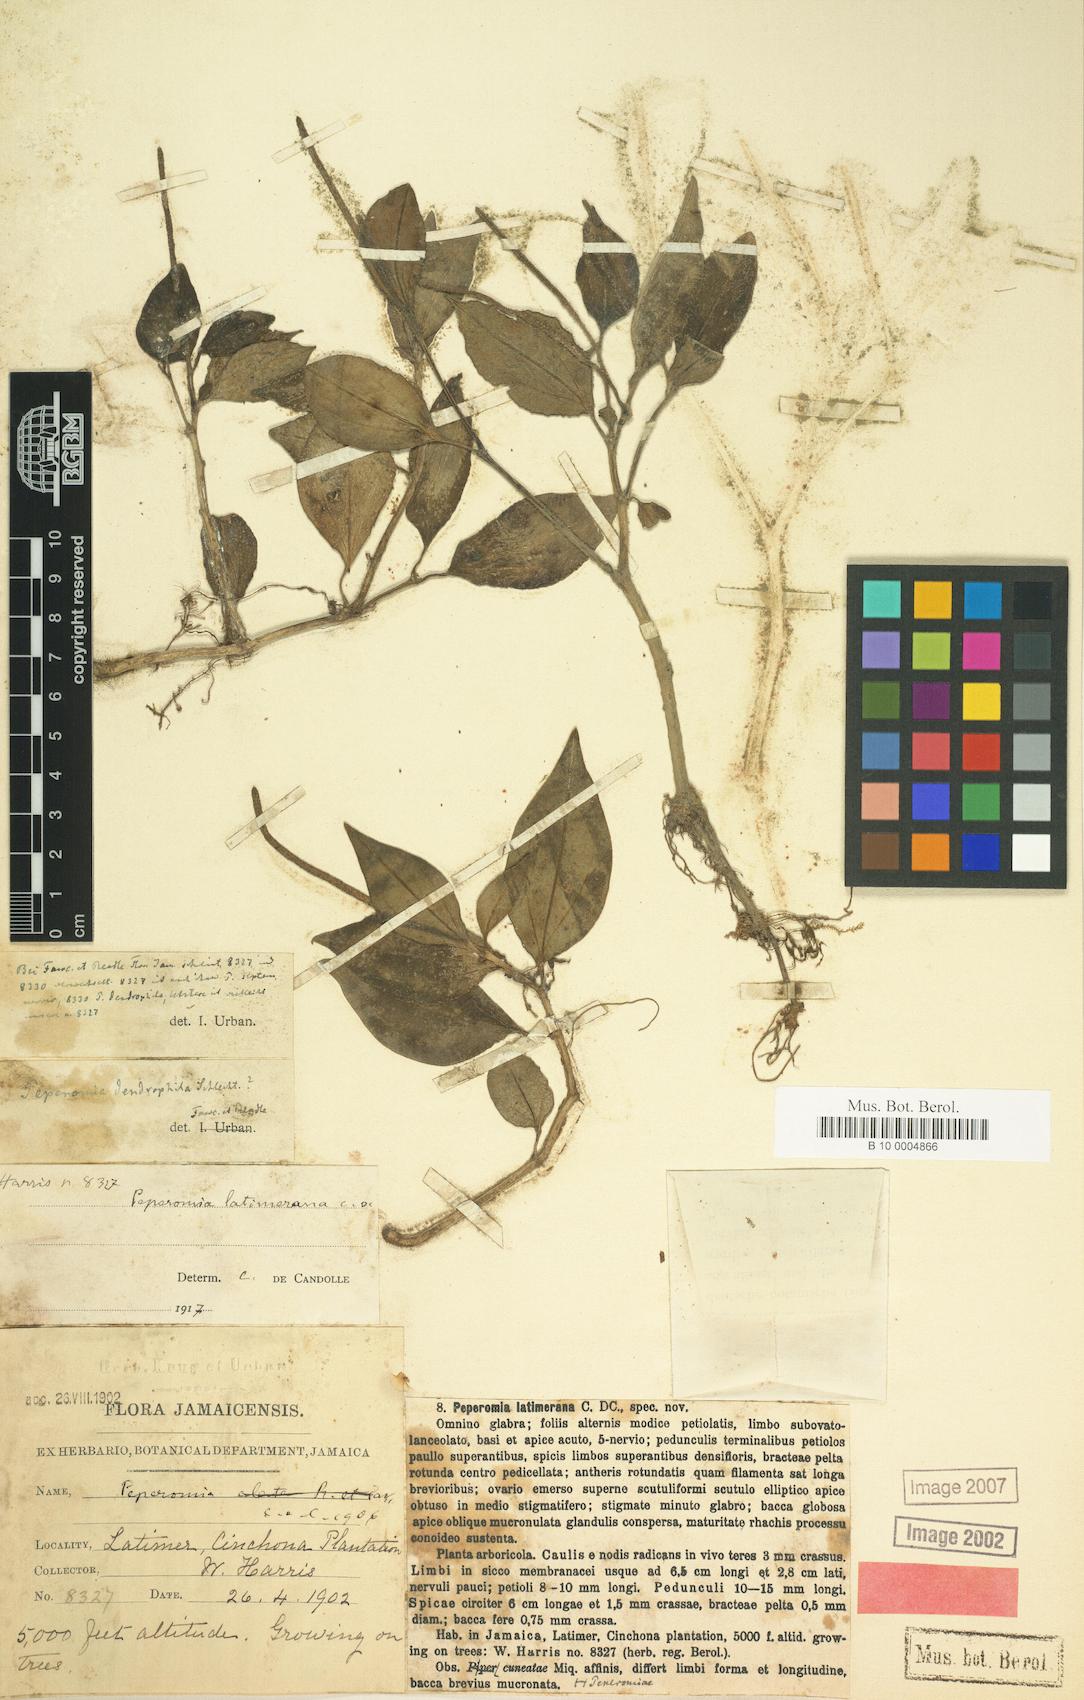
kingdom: Plantae
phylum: Tracheophyta
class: Magnoliopsida
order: Piperales
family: Piperaceae
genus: Peperomia
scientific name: Peperomia latimerana
